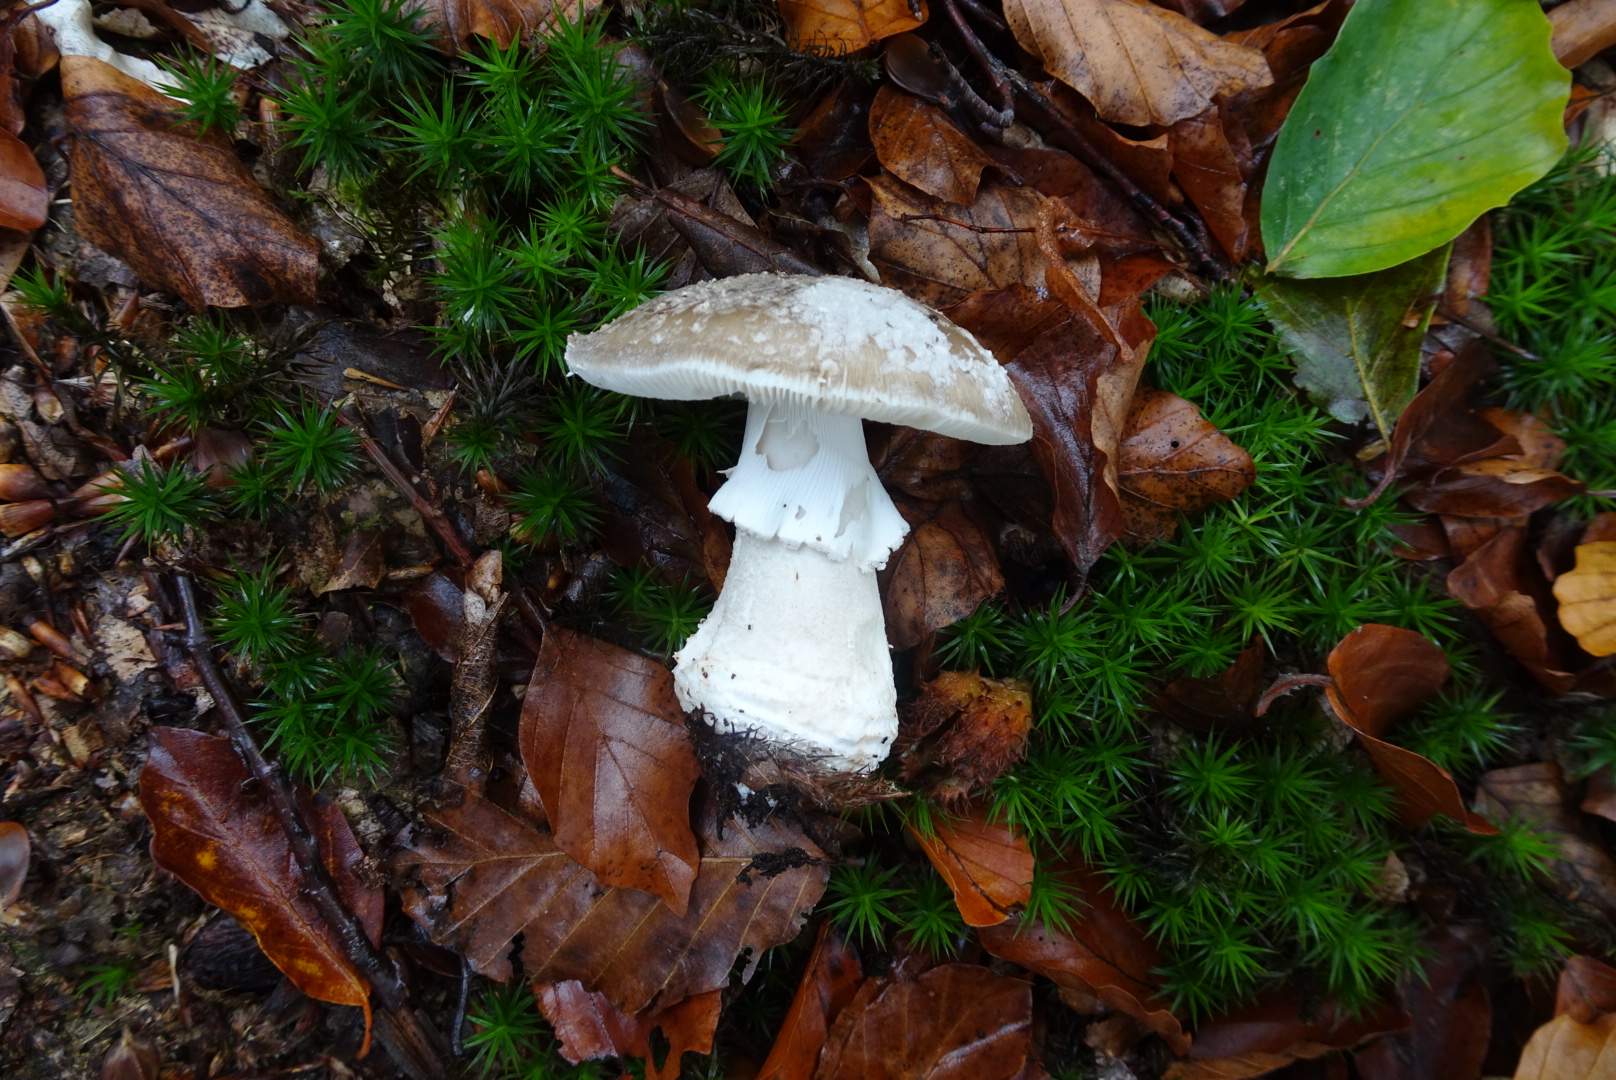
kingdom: Fungi
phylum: Basidiomycota
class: Agaricomycetes
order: Agaricales
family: Amanitaceae
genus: Amanita
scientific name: Amanita
